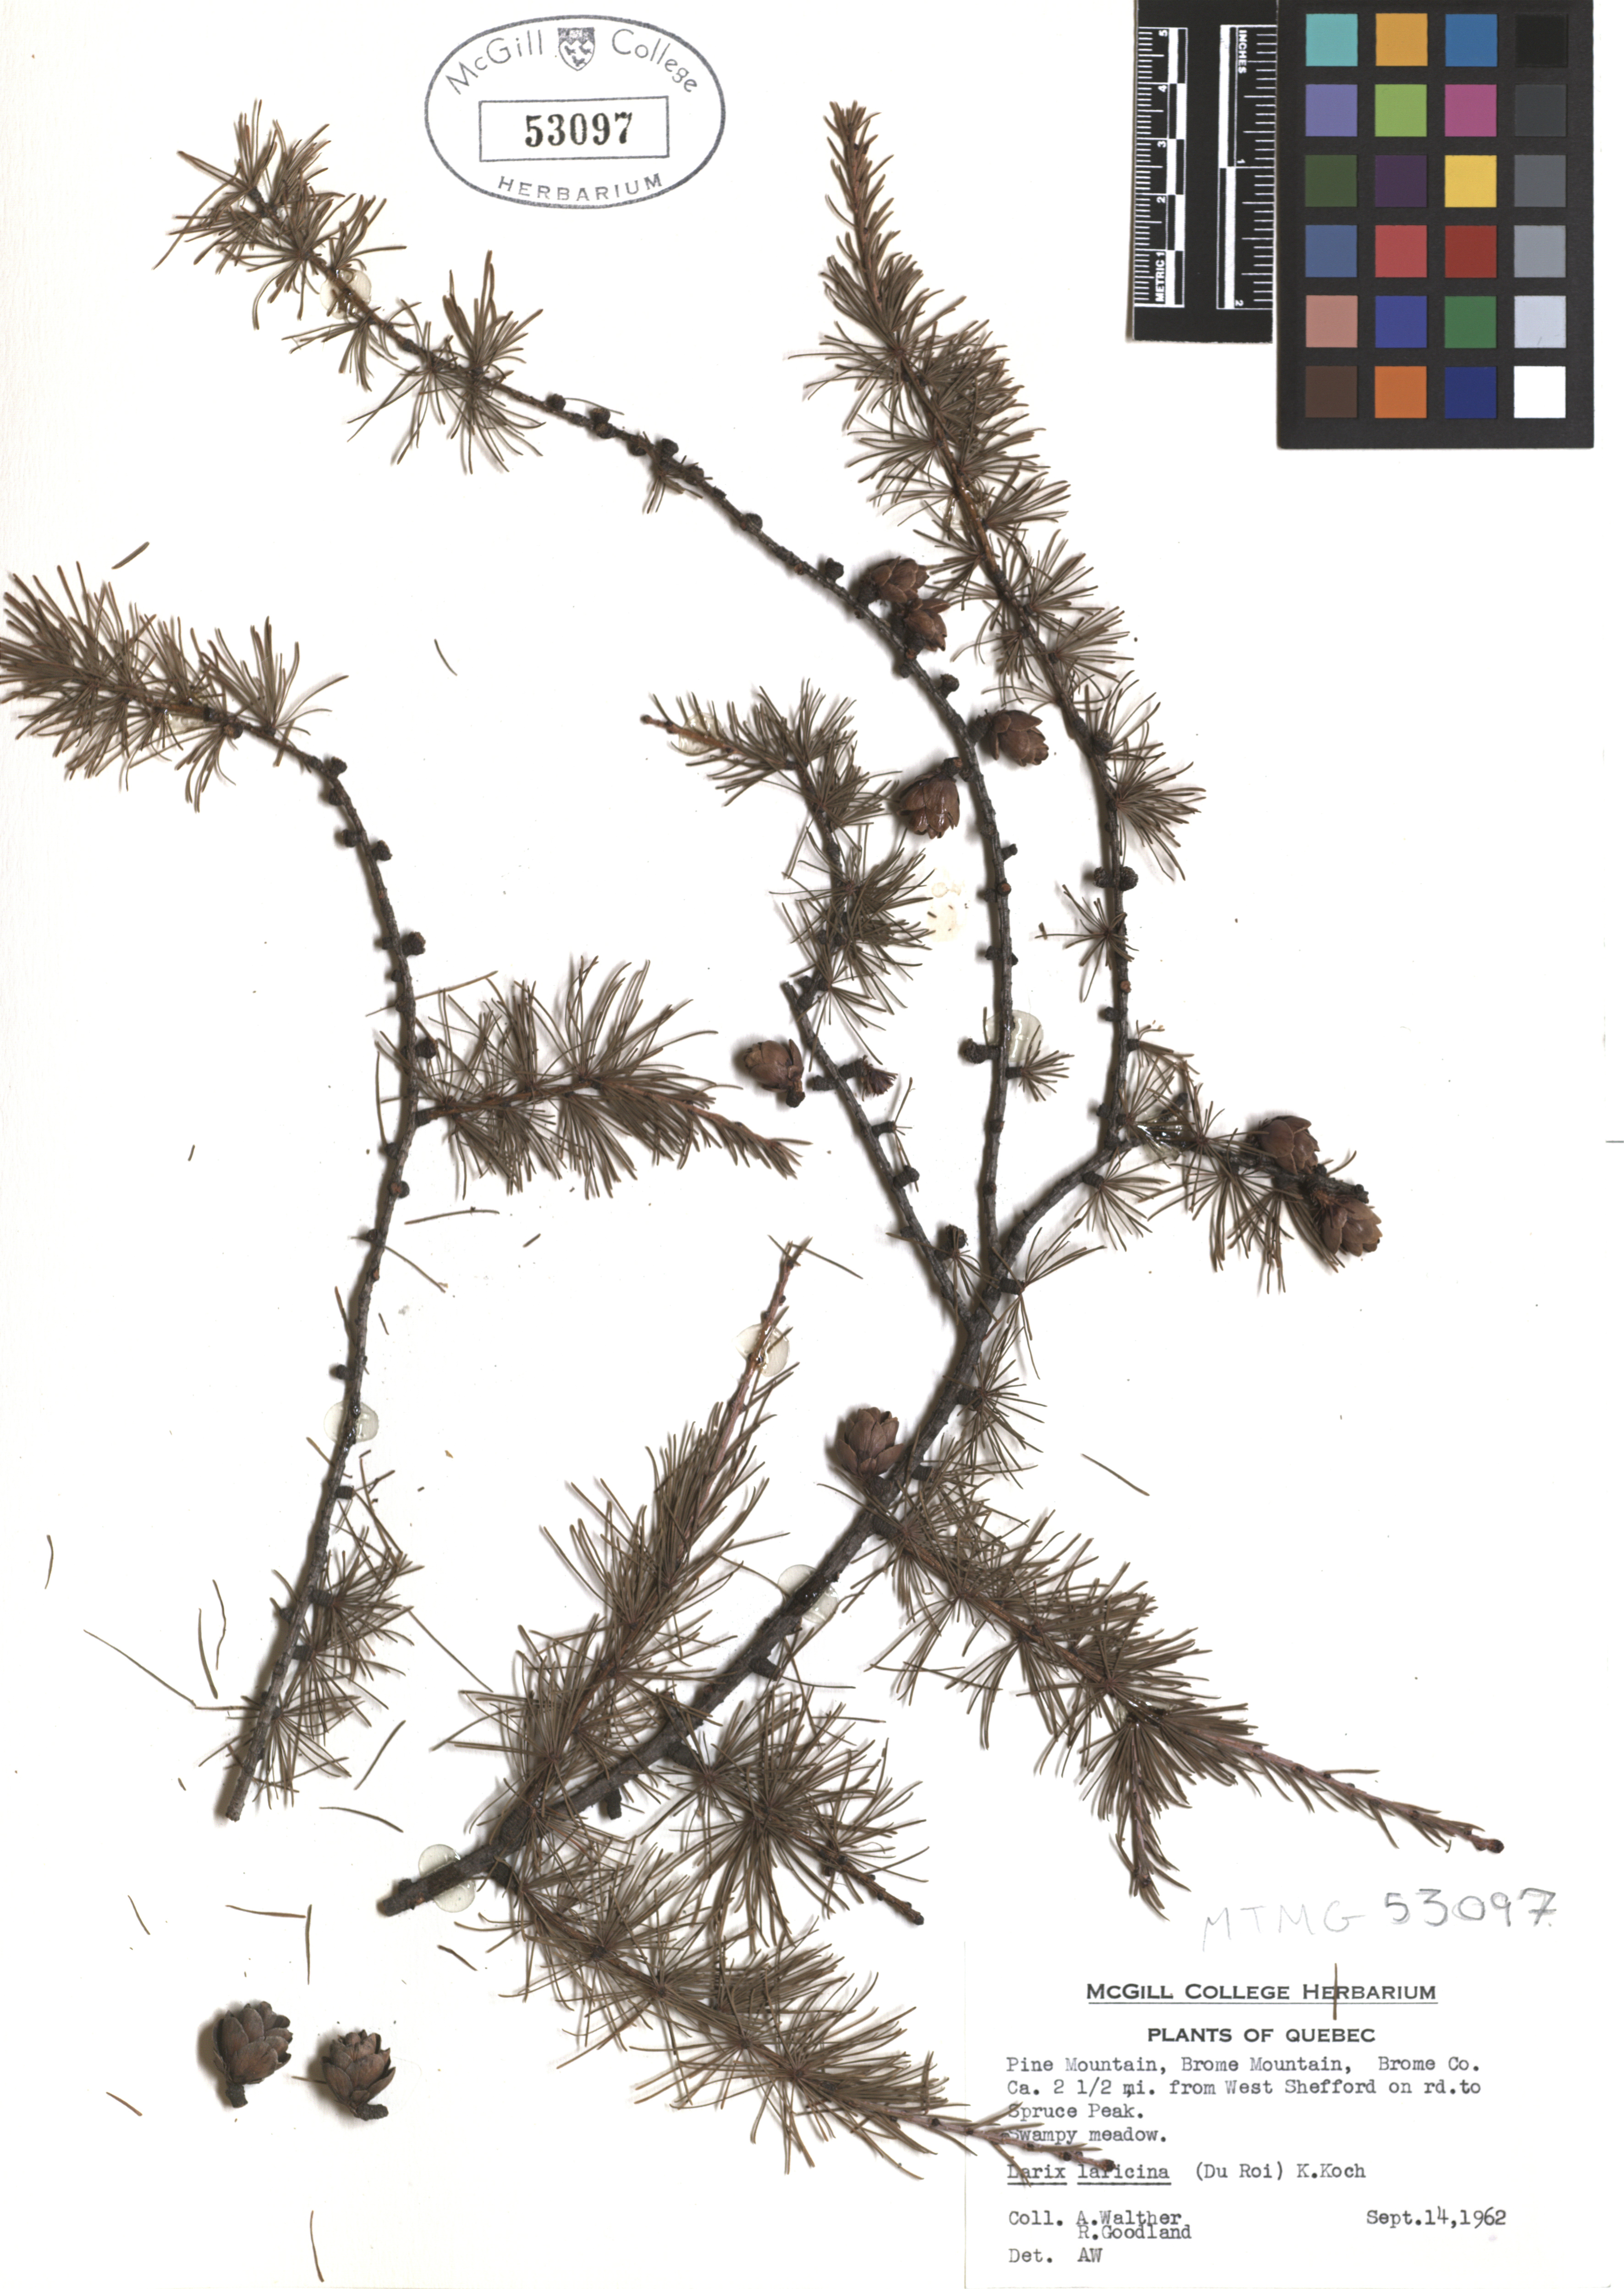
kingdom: Plantae
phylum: Tracheophyta
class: Pinopsida
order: Pinales
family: Pinaceae
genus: Larix
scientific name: Larix laricina
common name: American larch
